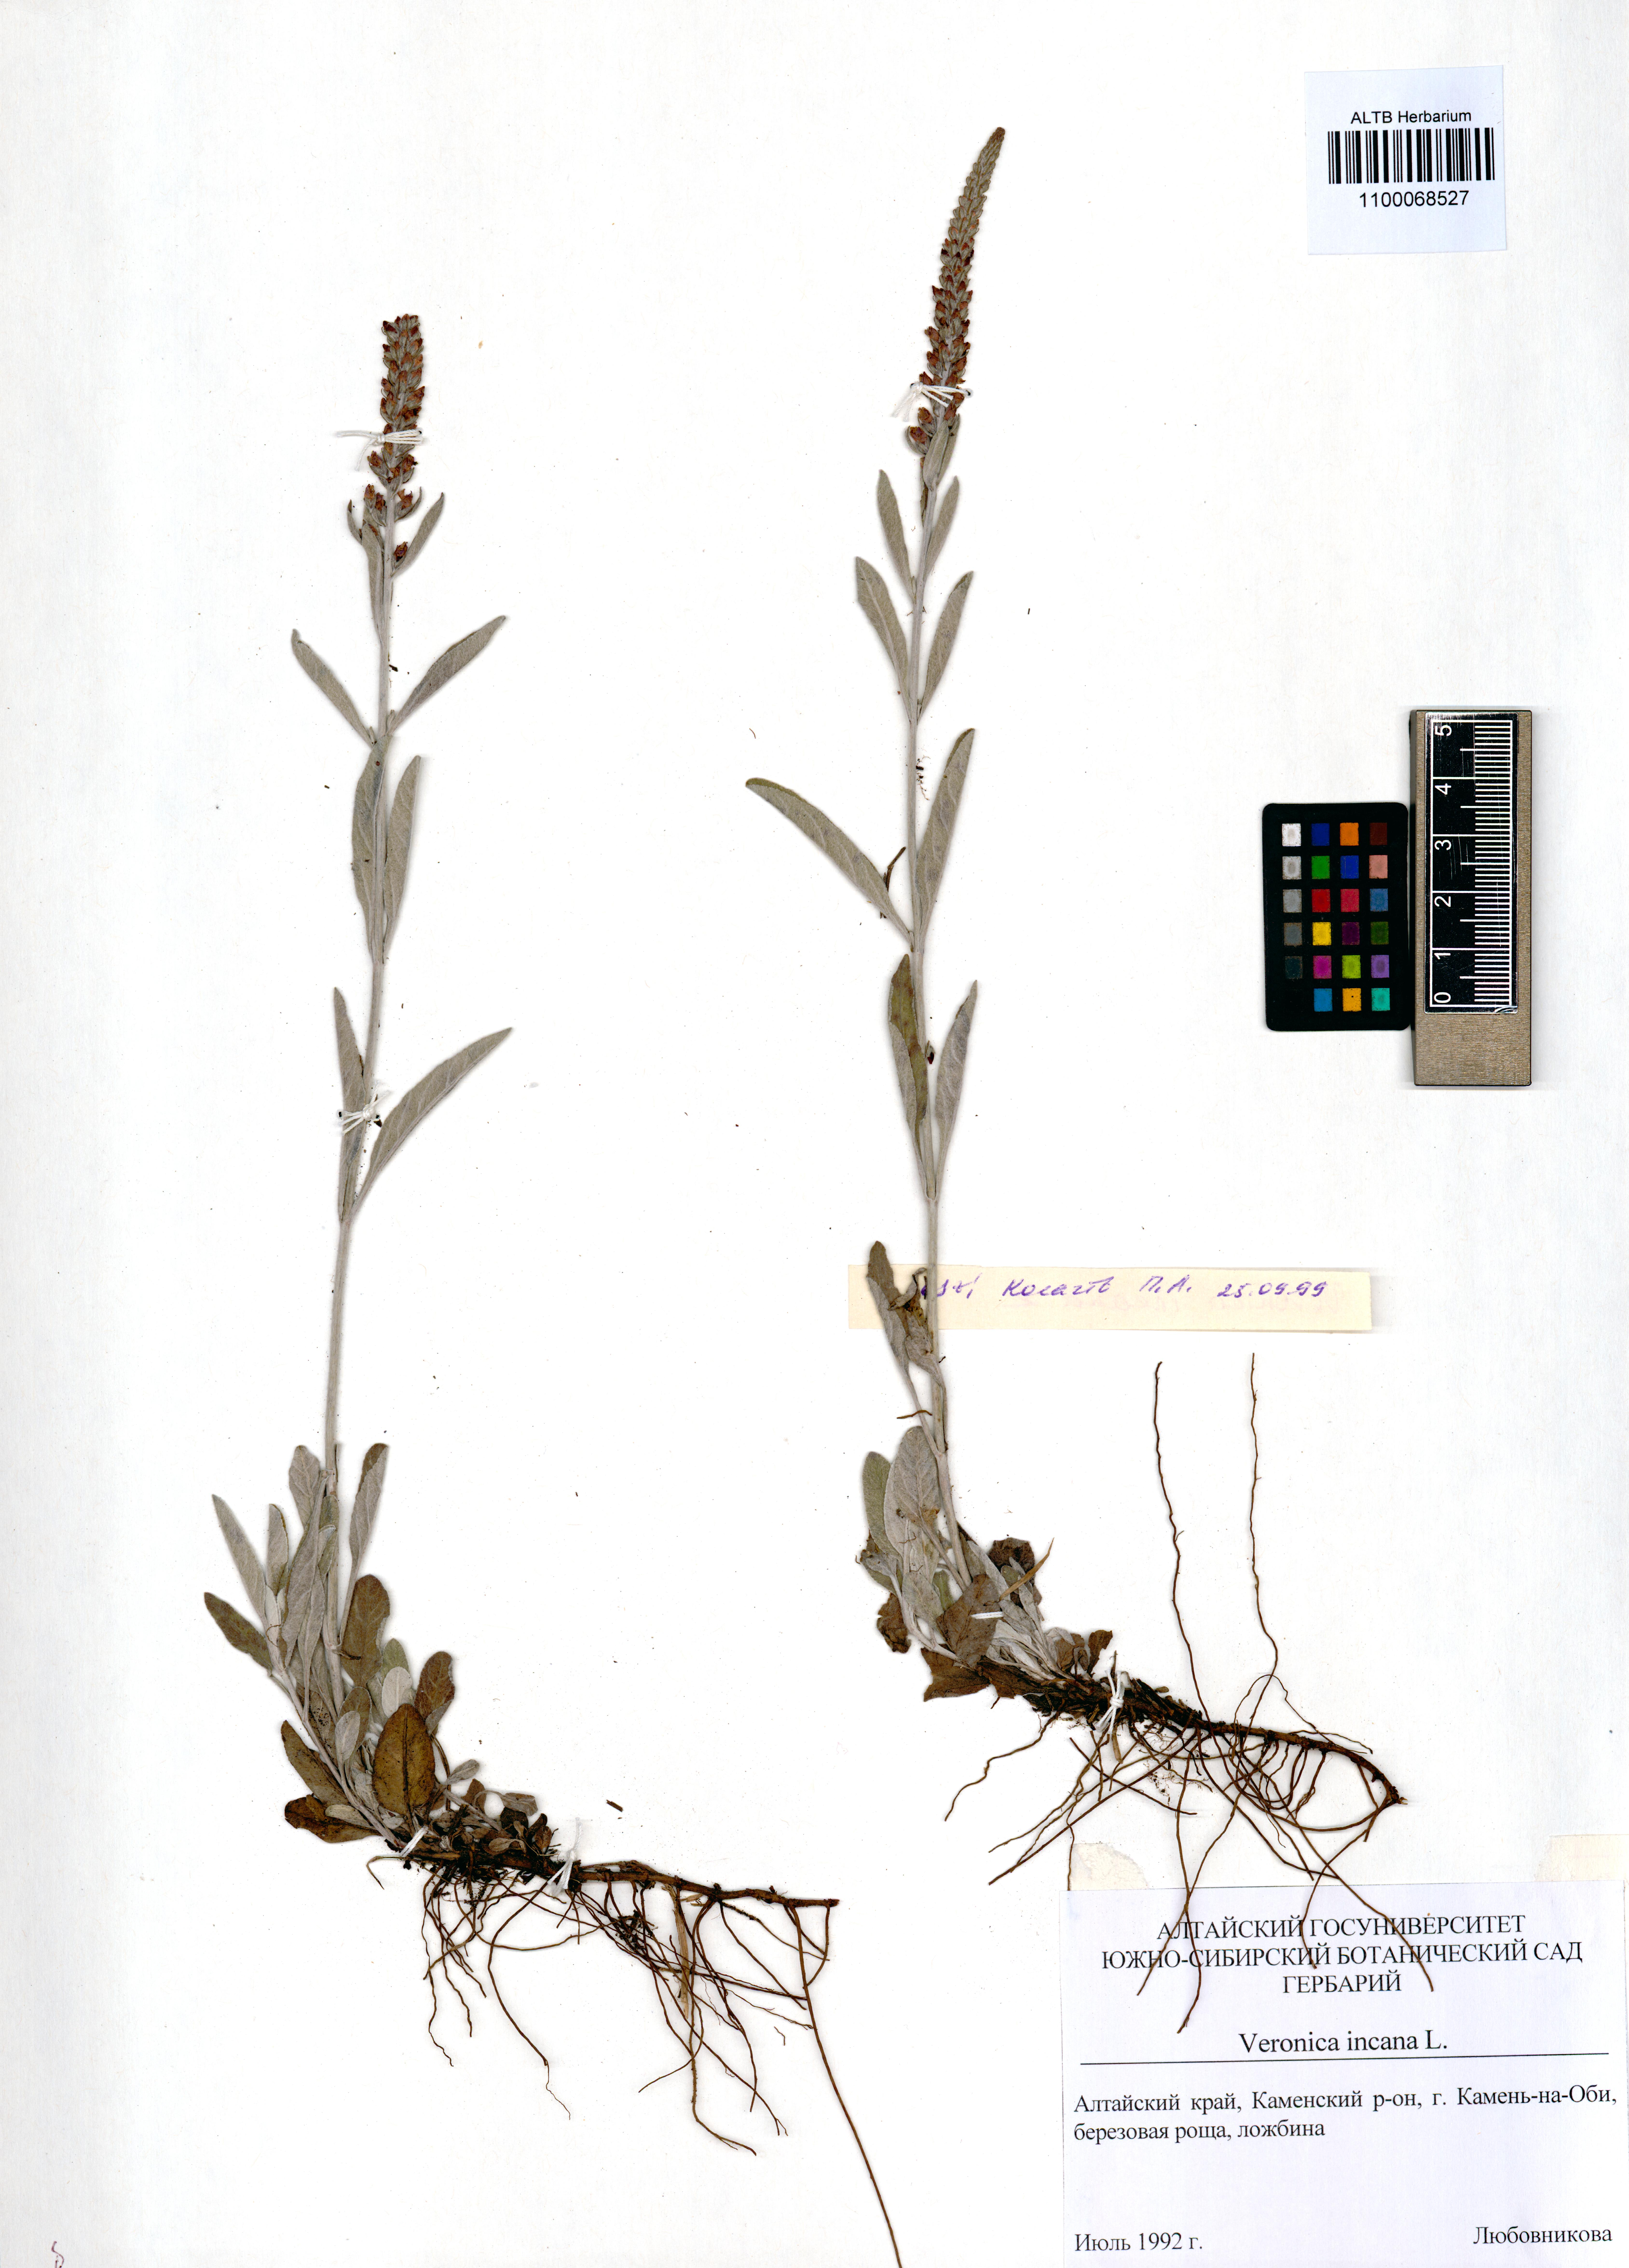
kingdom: Plantae
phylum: Tracheophyta
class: Magnoliopsida
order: Lamiales
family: Plantaginaceae
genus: Veronica
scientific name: Veronica incana
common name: Silver speedwell
